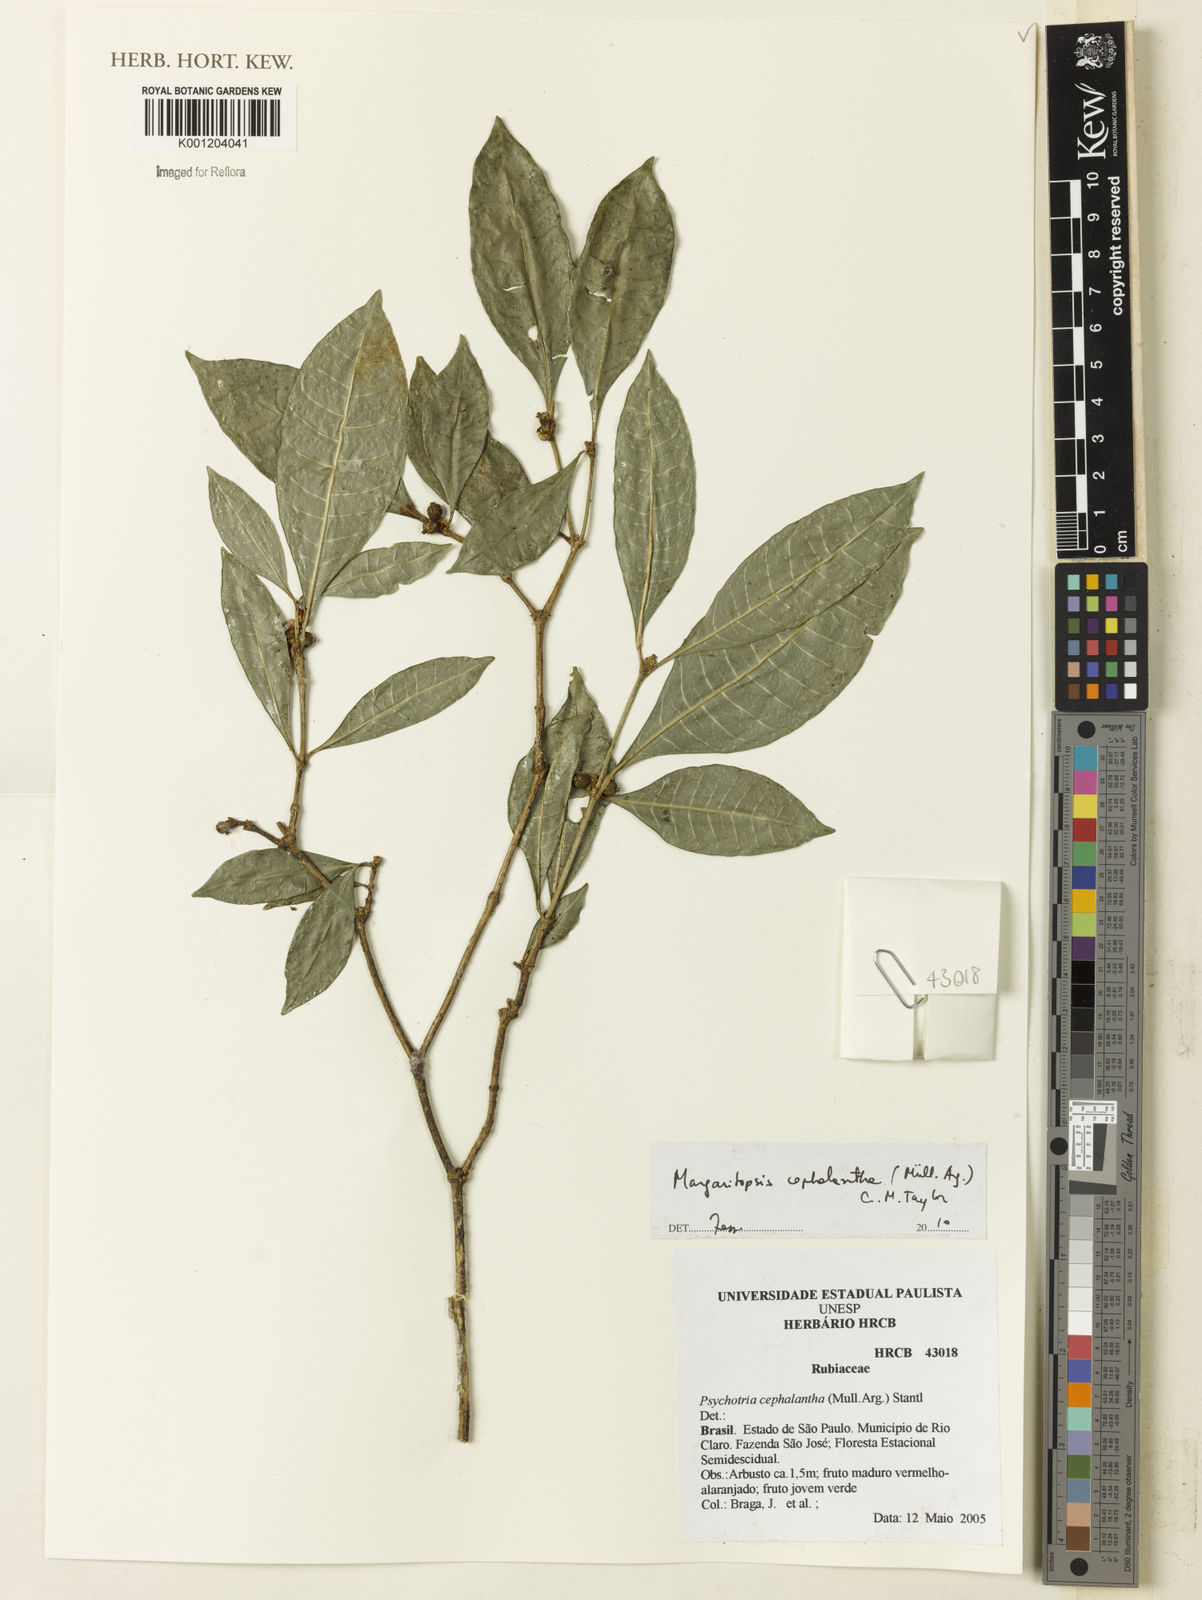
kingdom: Plantae
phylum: Tracheophyta
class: Magnoliopsida
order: Gentianales
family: Rubiaceae
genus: Eumachia
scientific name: Eumachia
